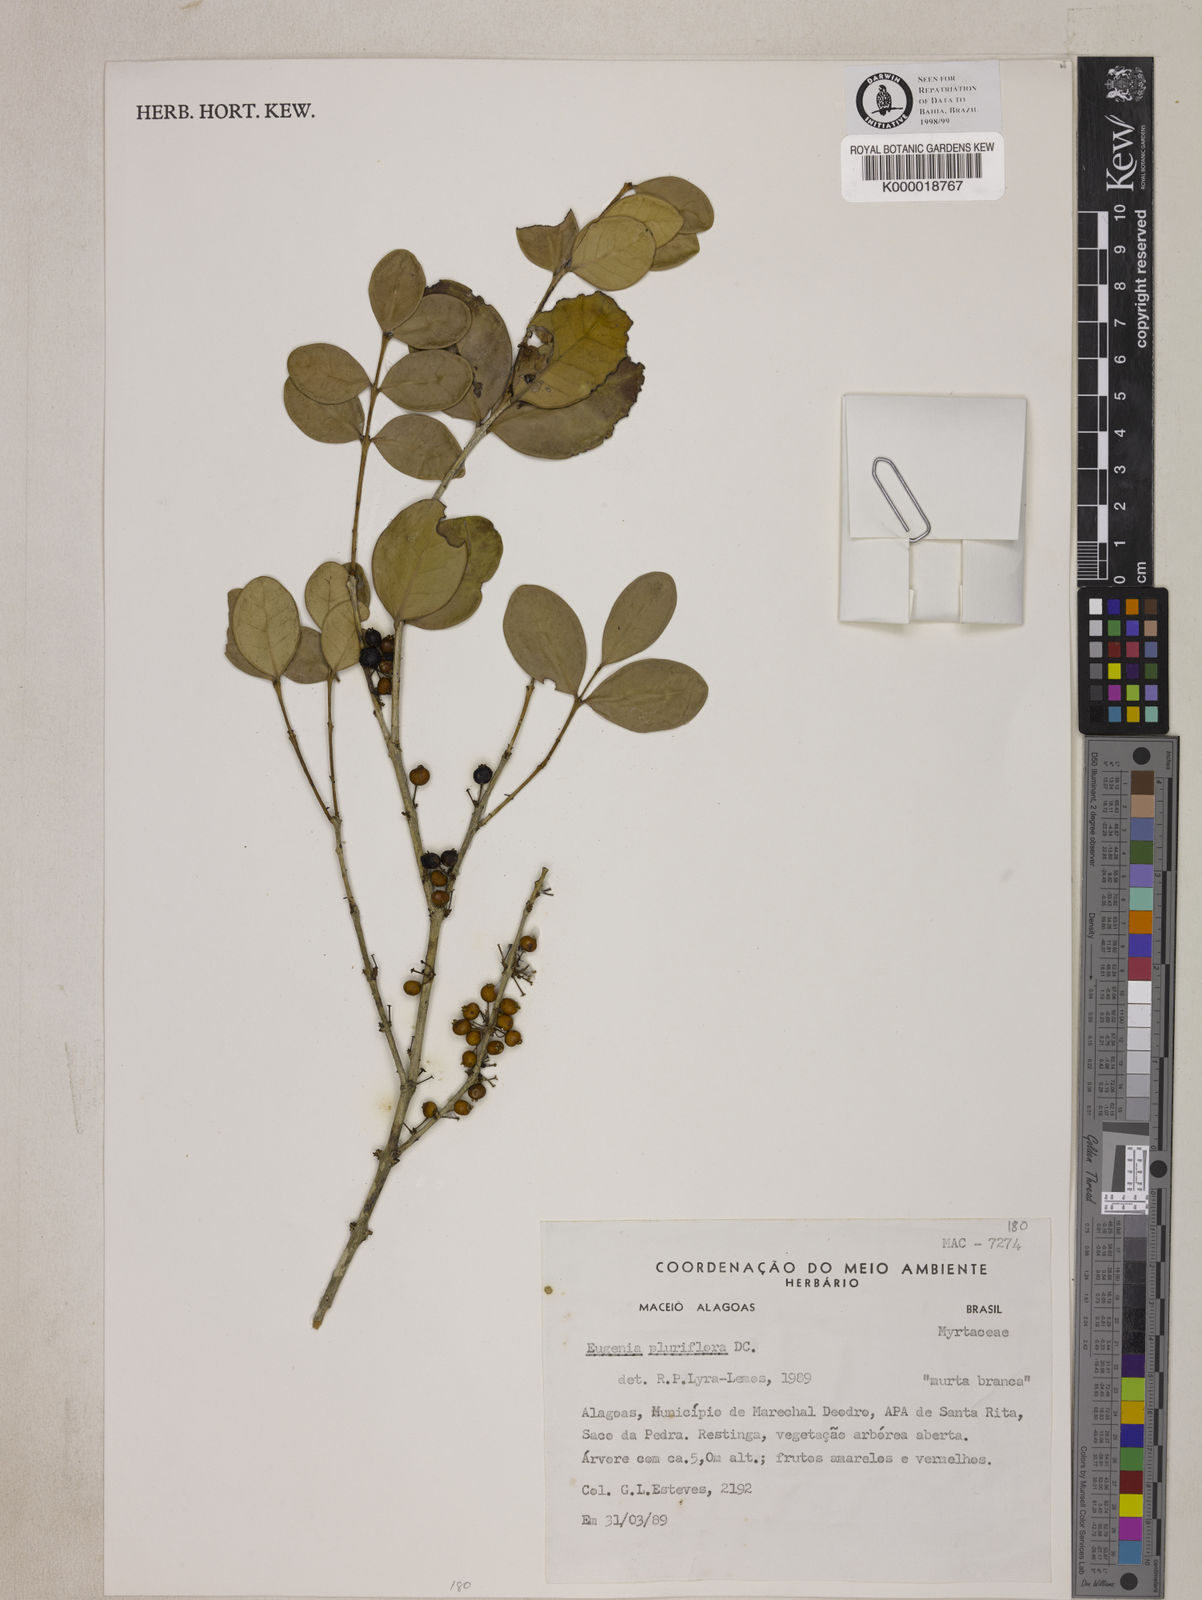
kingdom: Plantae
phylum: Tracheophyta
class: Magnoliopsida
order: Myrtales
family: Myrtaceae
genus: Eugenia
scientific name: Eugenia pluriflora
